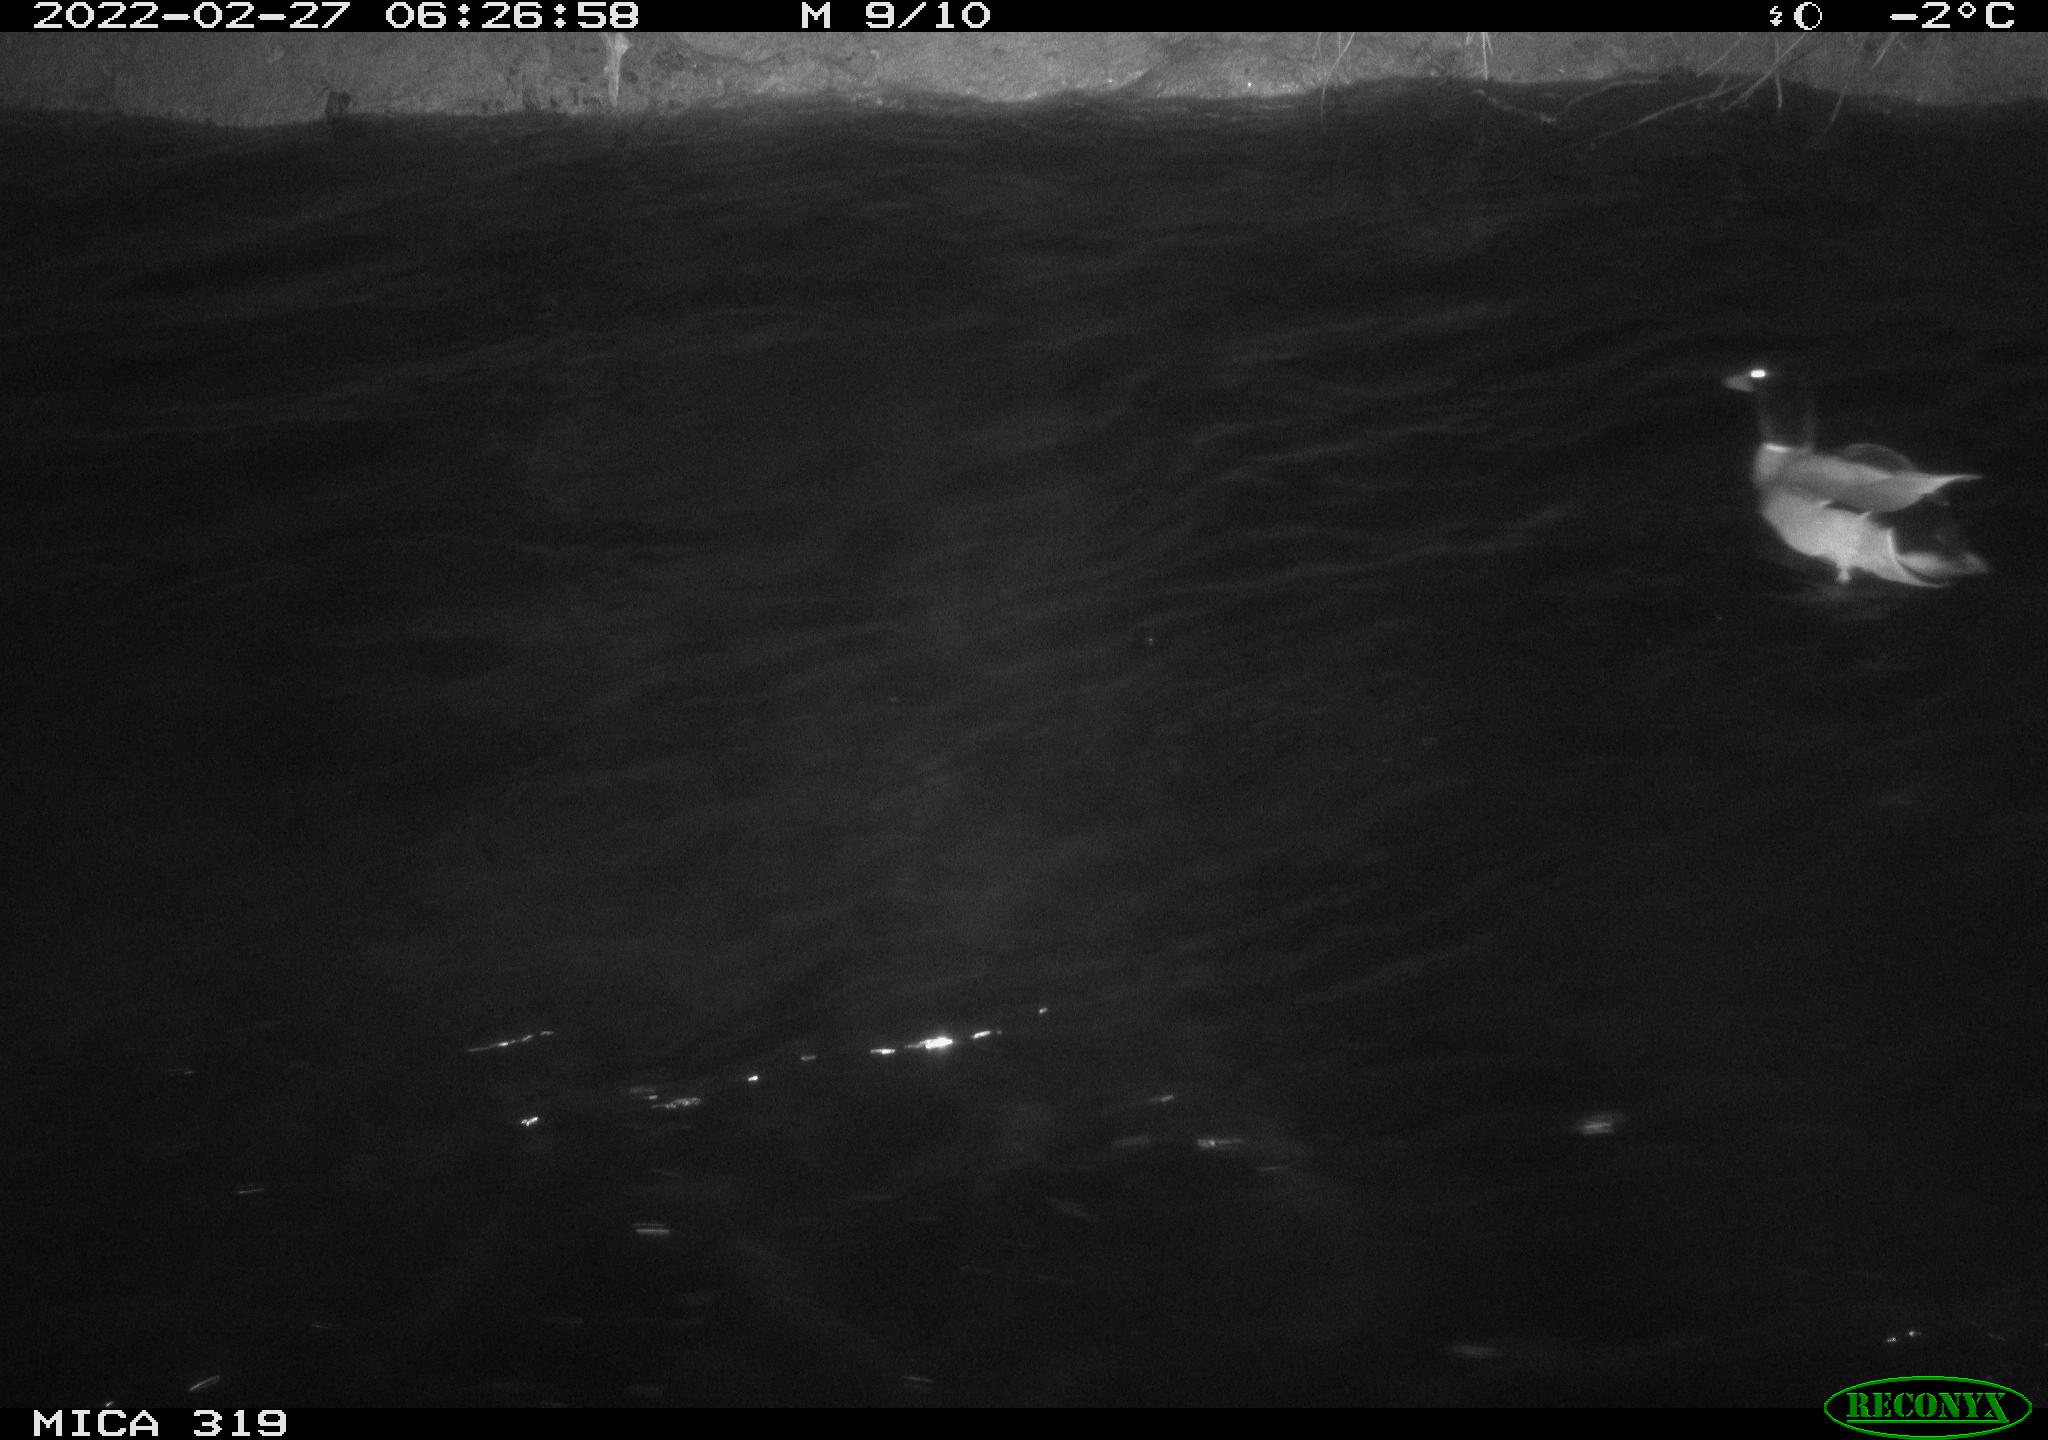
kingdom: Animalia
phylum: Chordata
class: Aves
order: Anseriformes
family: Anatidae
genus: Anas
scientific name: Anas platyrhynchos
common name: Mallard
